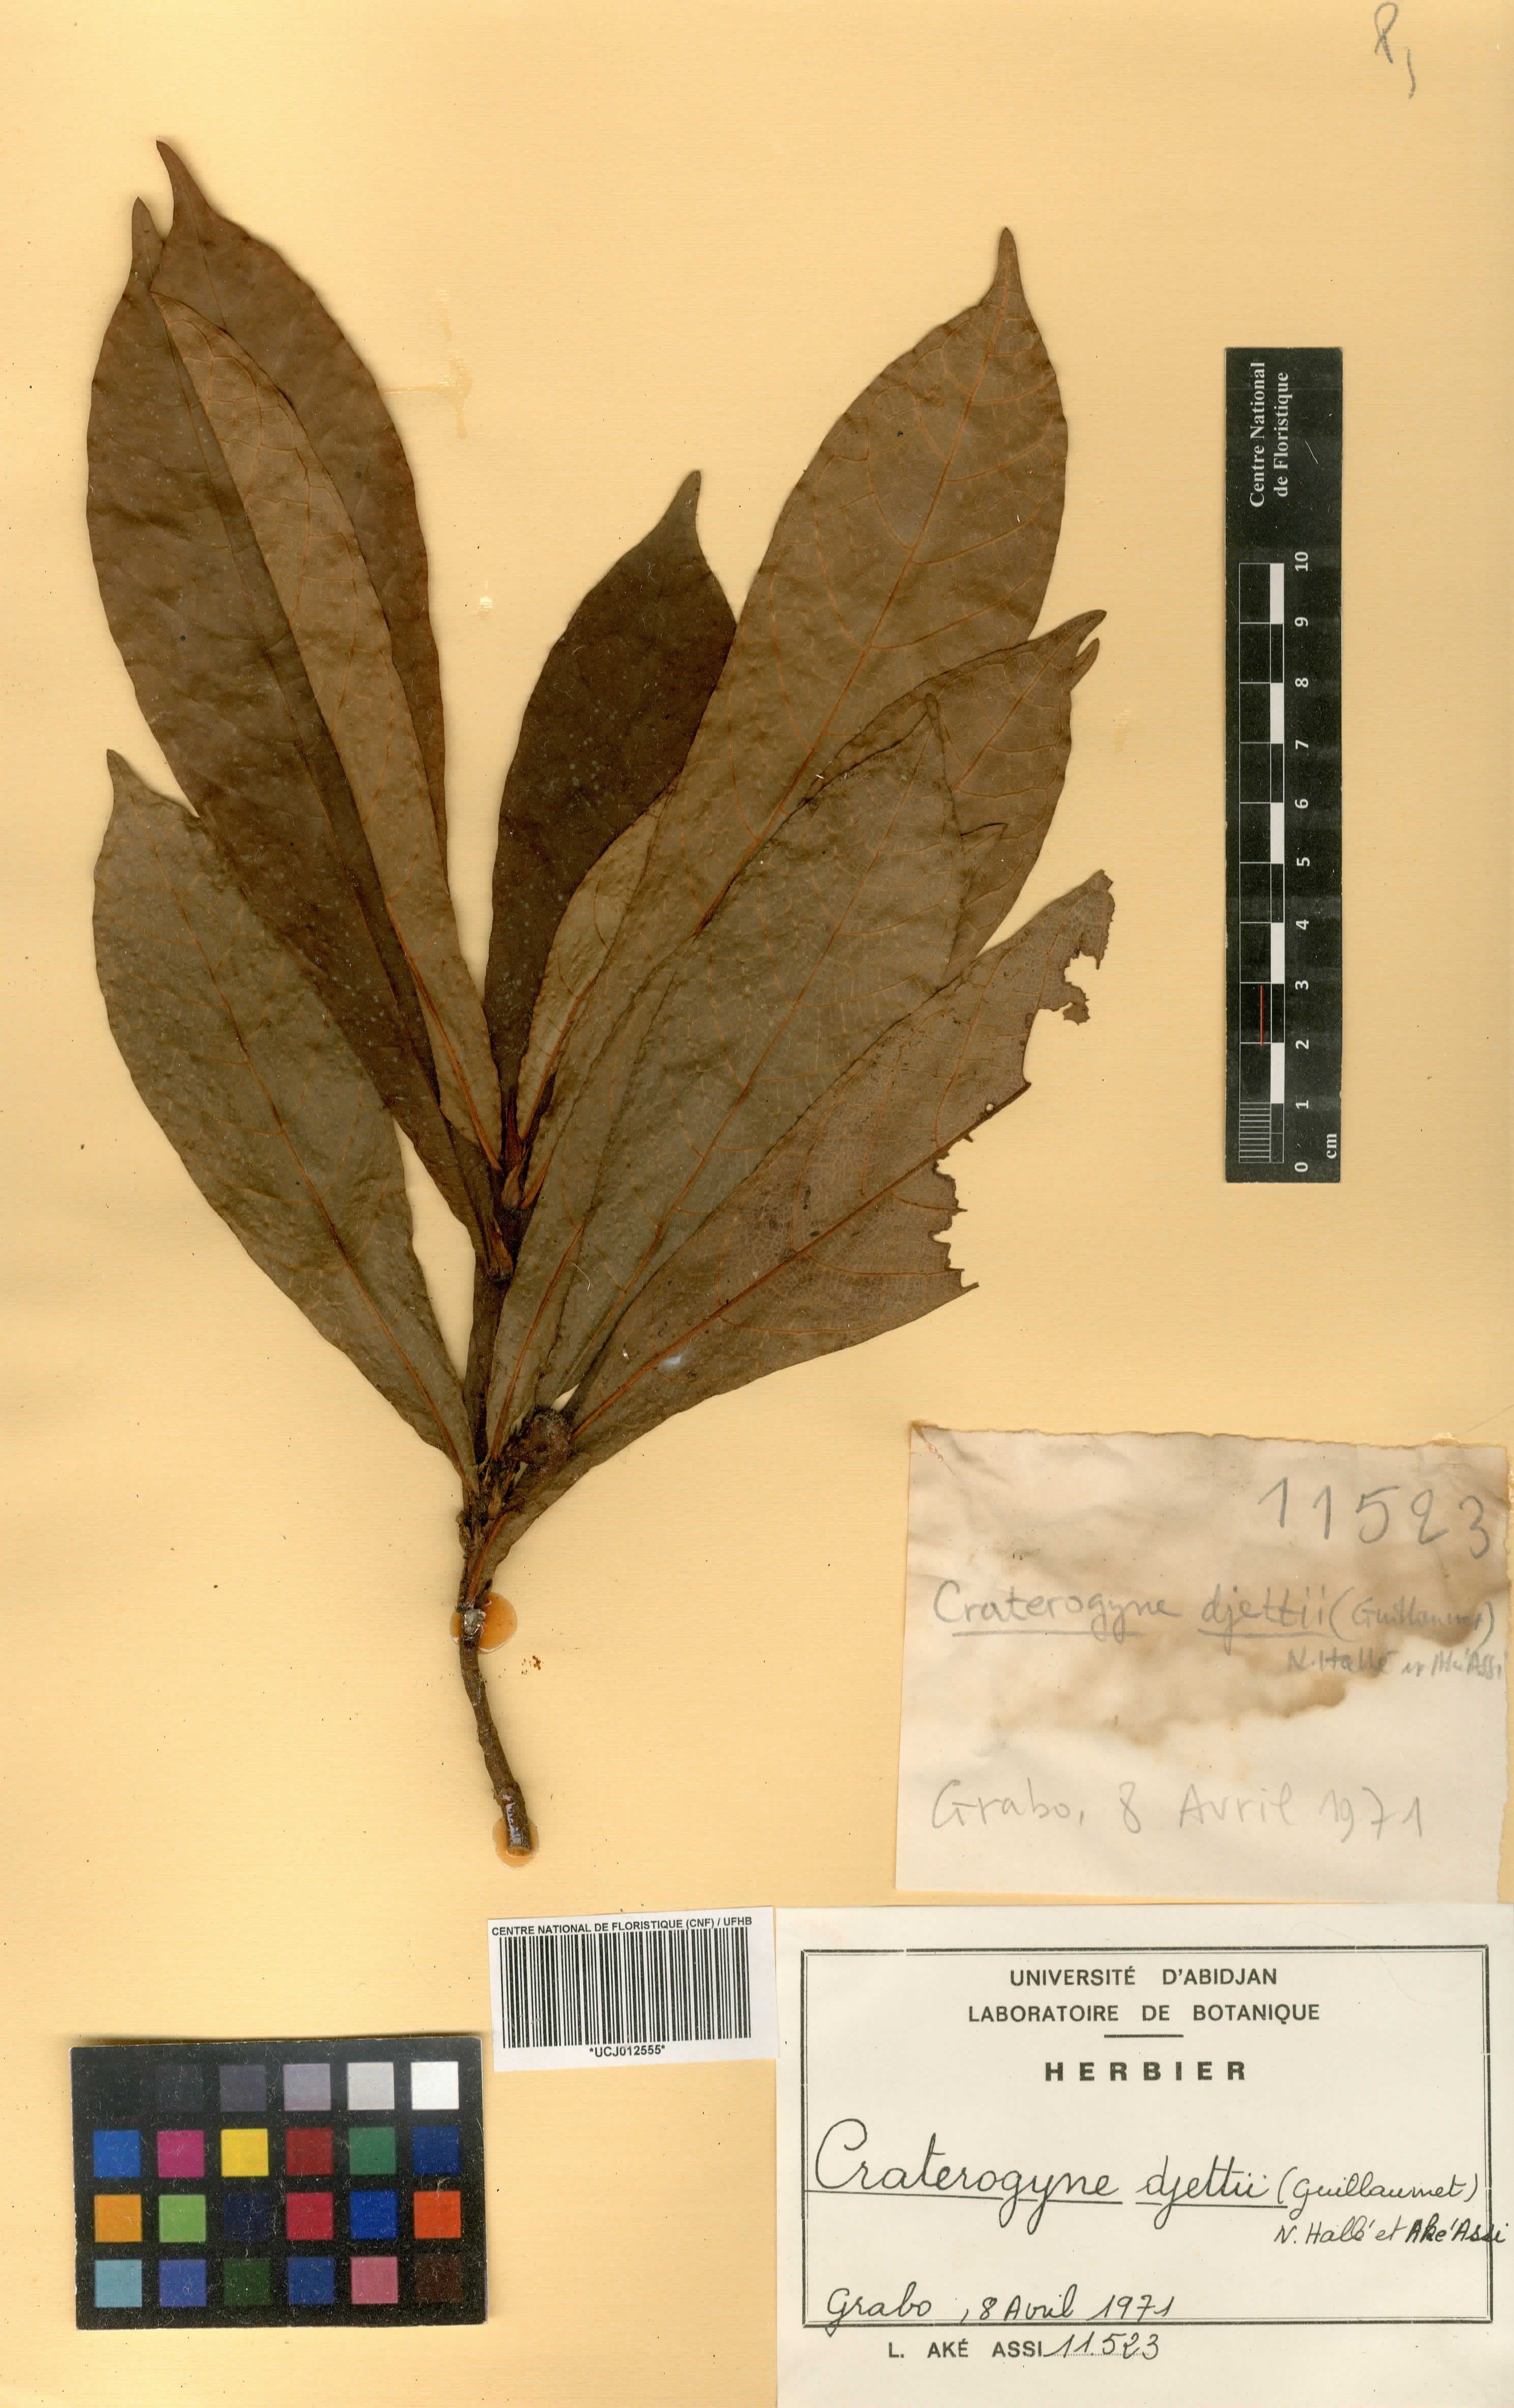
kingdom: Plantae
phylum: Tracheophyta
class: Magnoliopsida
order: Rosales
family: Moraceae
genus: Dorstenia
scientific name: Dorstenia djettii
